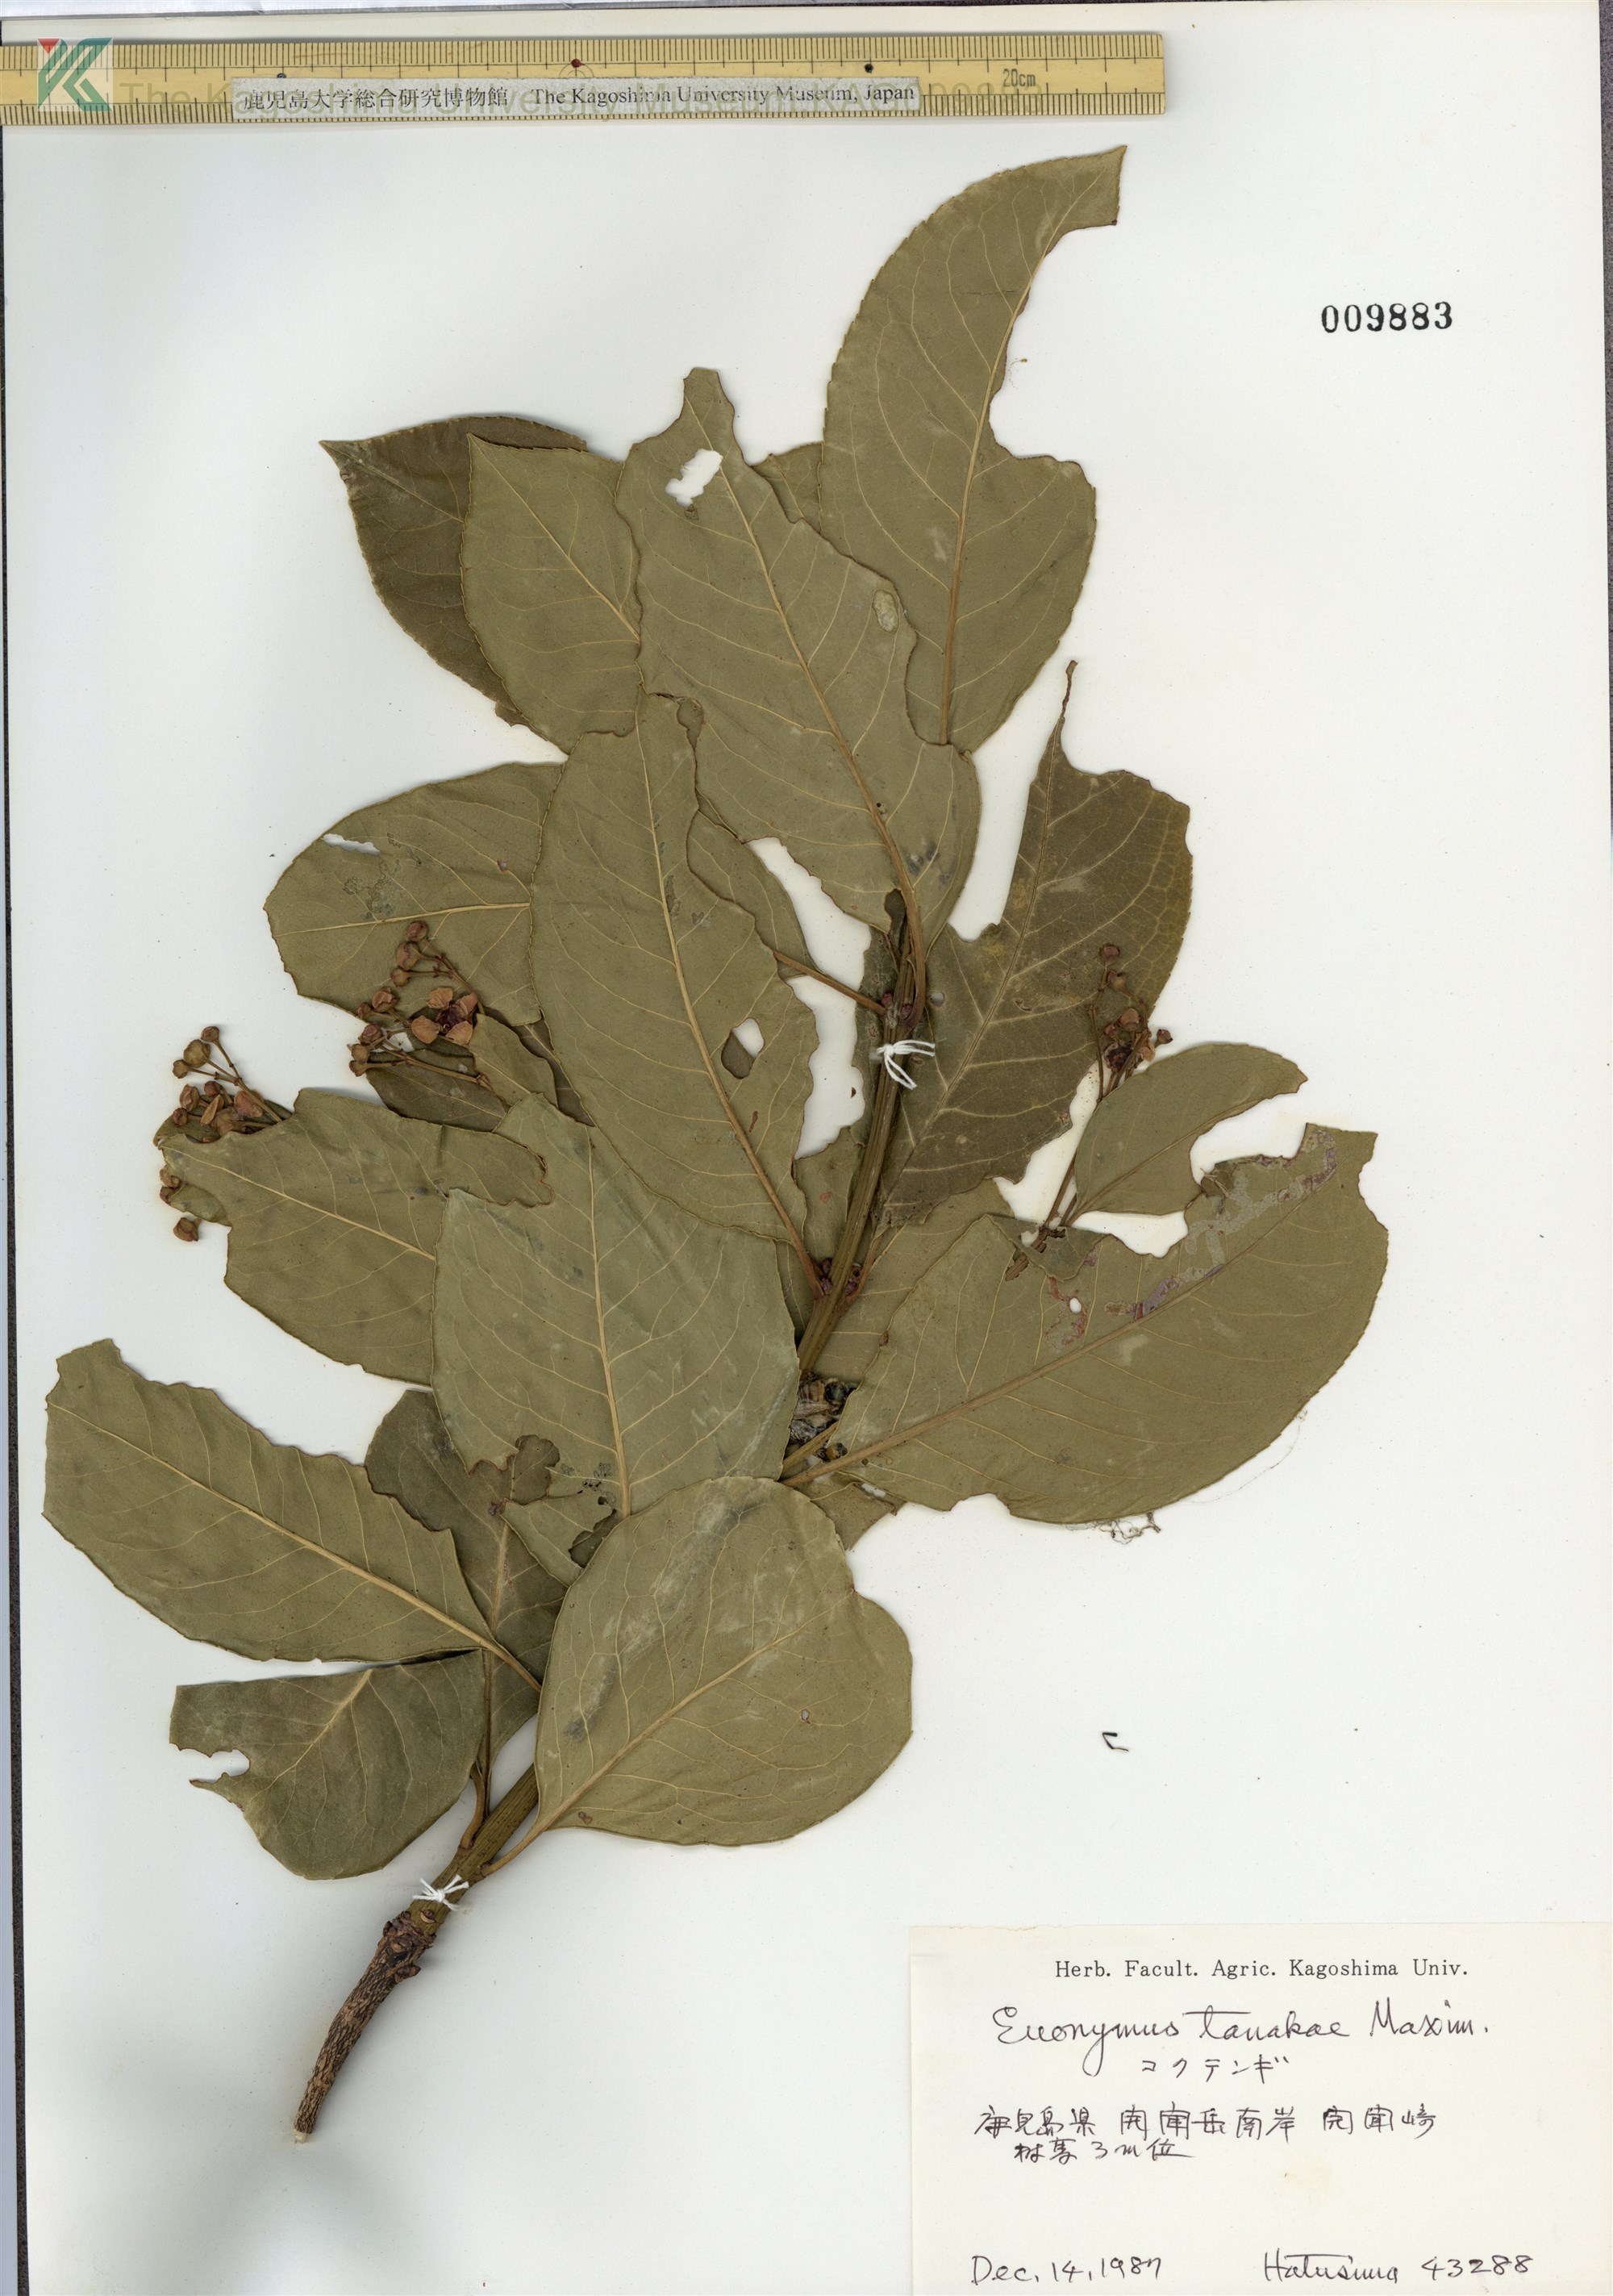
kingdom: Plantae
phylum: Tracheophyta
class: Magnoliopsida
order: Celastrales
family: Celastraceae
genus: Euonymus
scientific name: Euonymus carnosus
